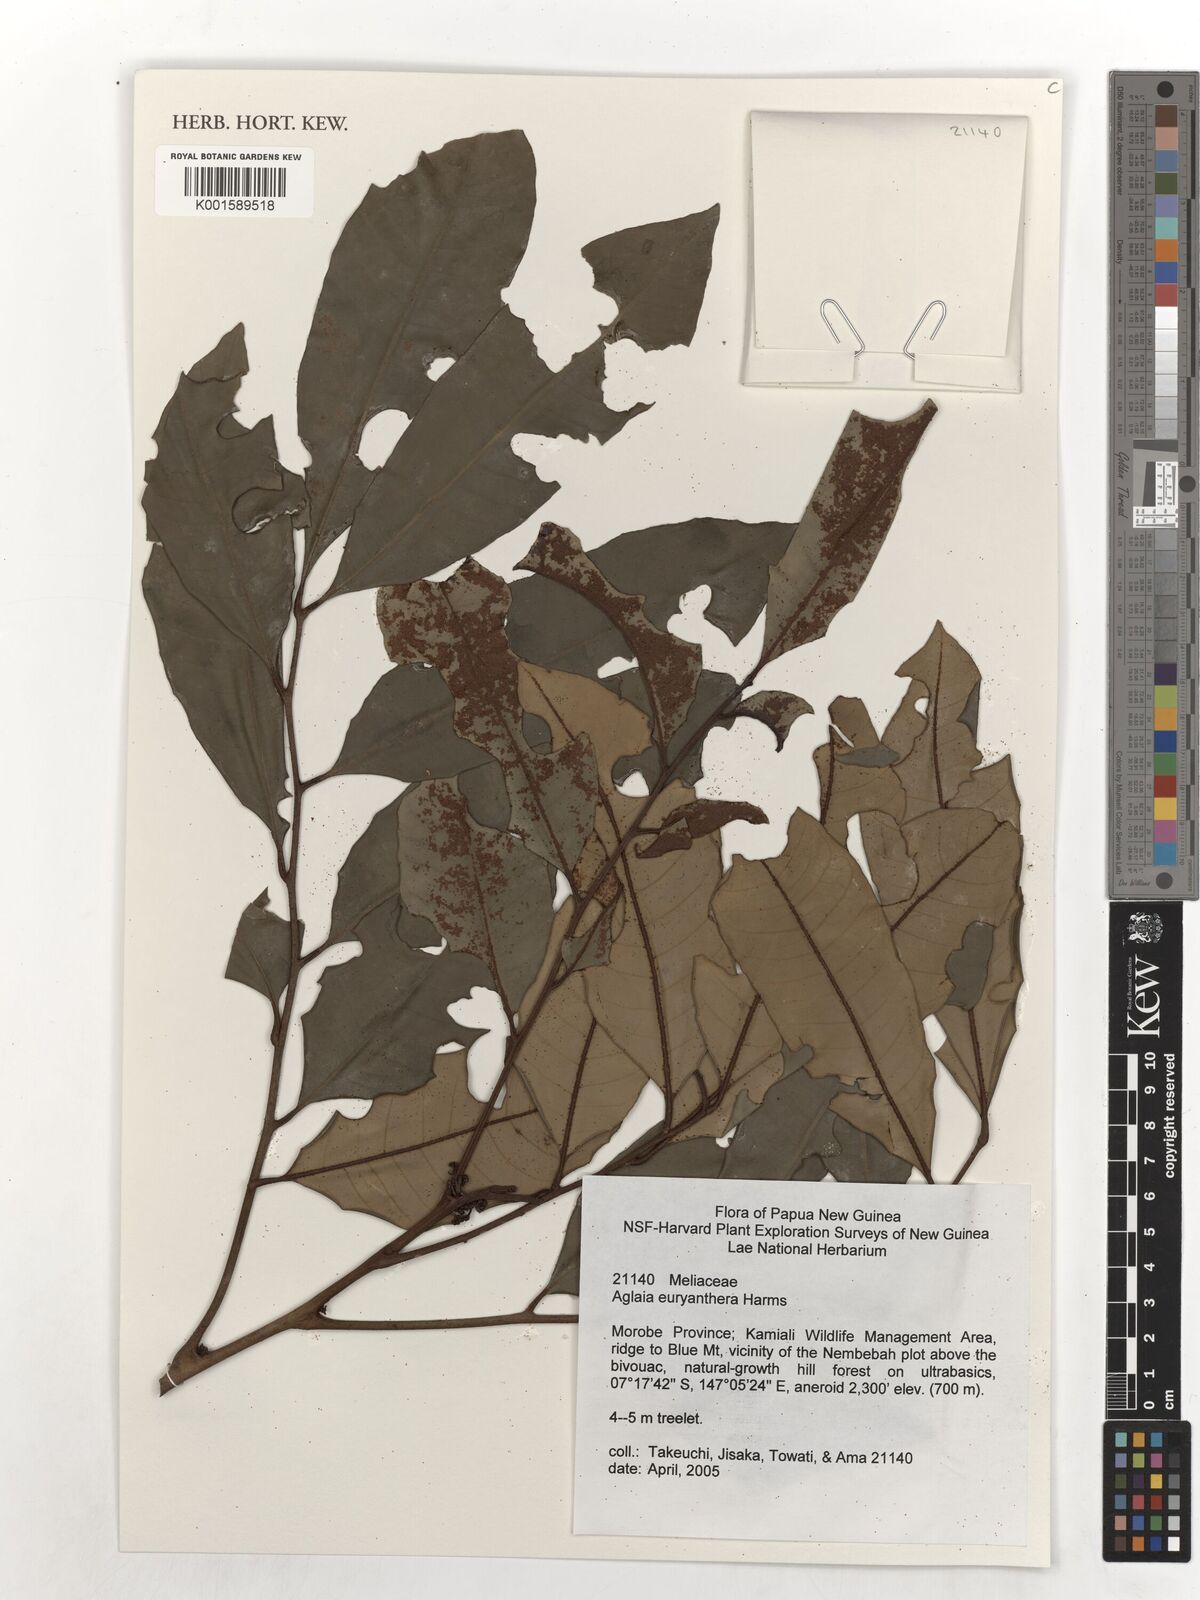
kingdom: Plantae
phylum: Tracheophyta
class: Magnoliopsida
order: Sapindales
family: Meliaceae
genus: Aglaia
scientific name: Aglaia euryanthera
